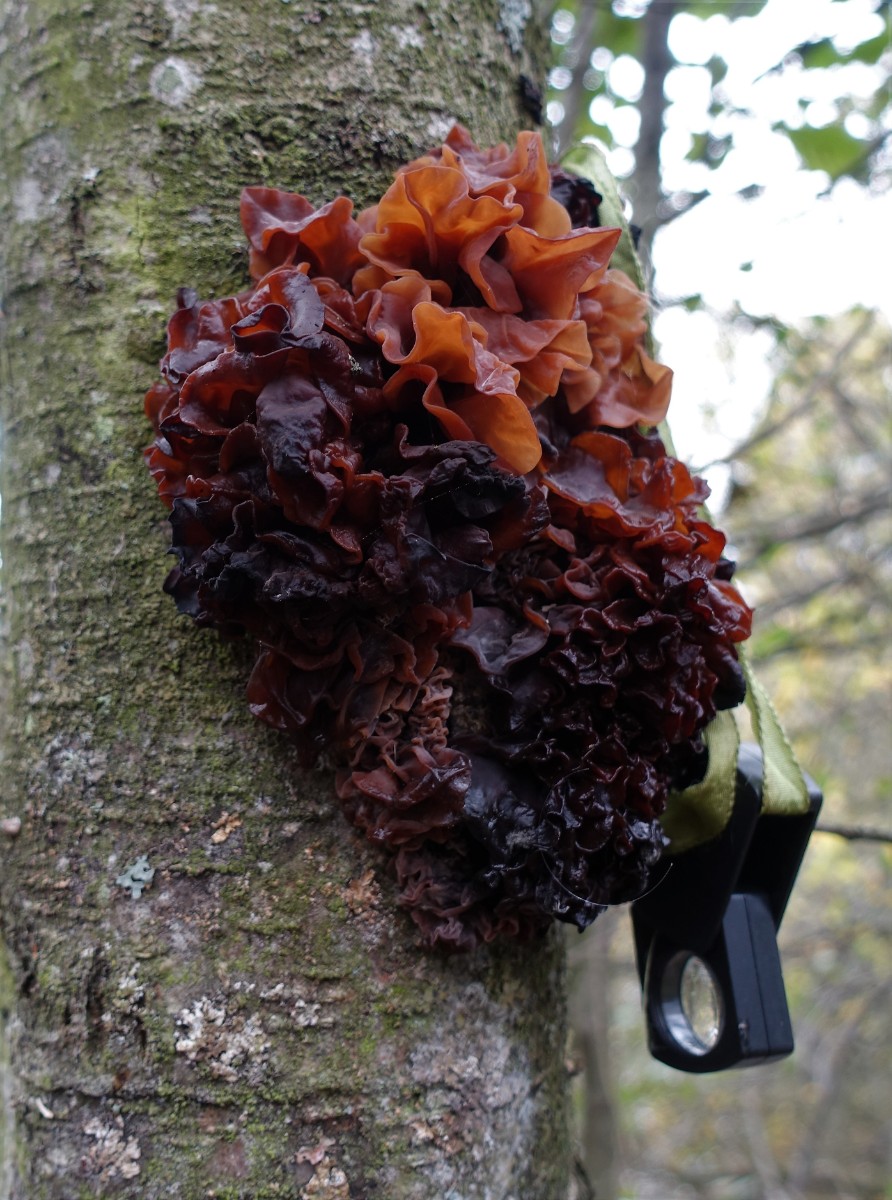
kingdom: Fungi
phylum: Basidiomycota
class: Tremellomycetes
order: Tremellales
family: Tremellaceae
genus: Phaeotremella
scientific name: Phaeotremella frondosa
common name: kæmpe-bævresvamp
